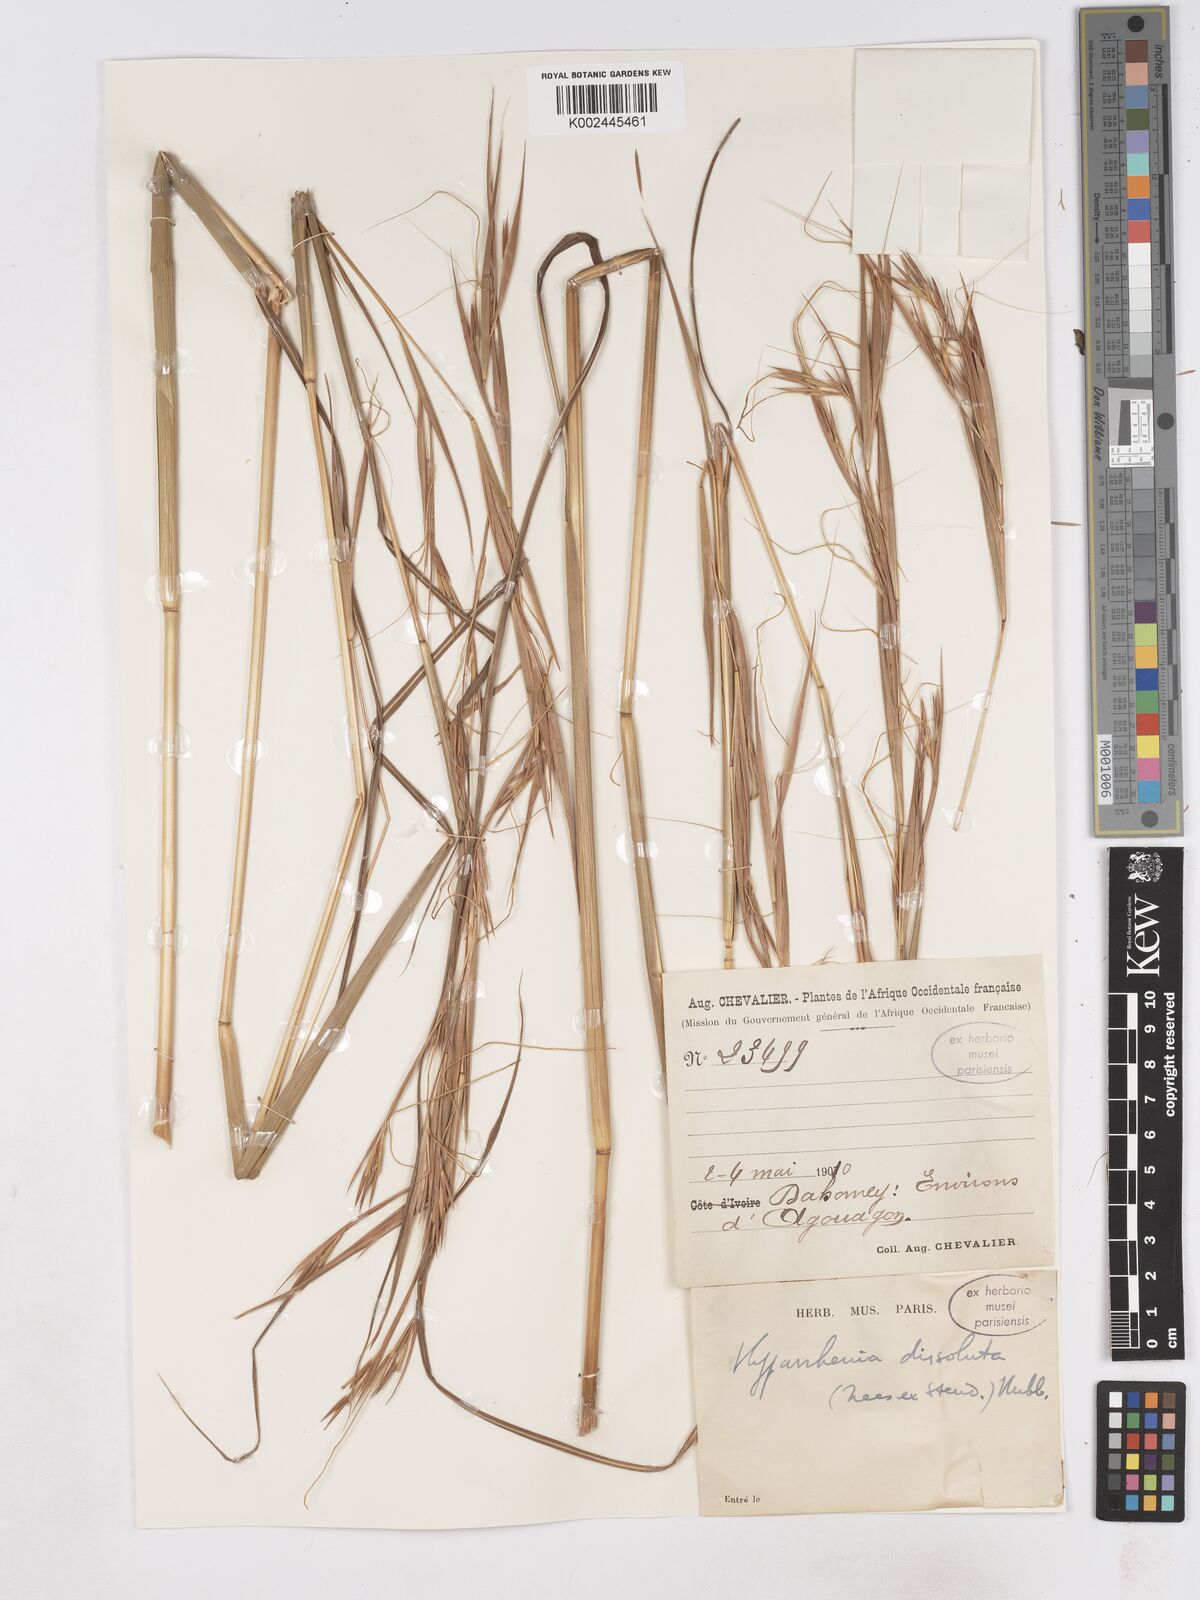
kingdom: Plantae
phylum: Tracheophyta
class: Liliopsida
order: Poales
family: Poaceae
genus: Hyperthelia
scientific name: Hyperthelia dissoluta
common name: Yellow thatching grass
